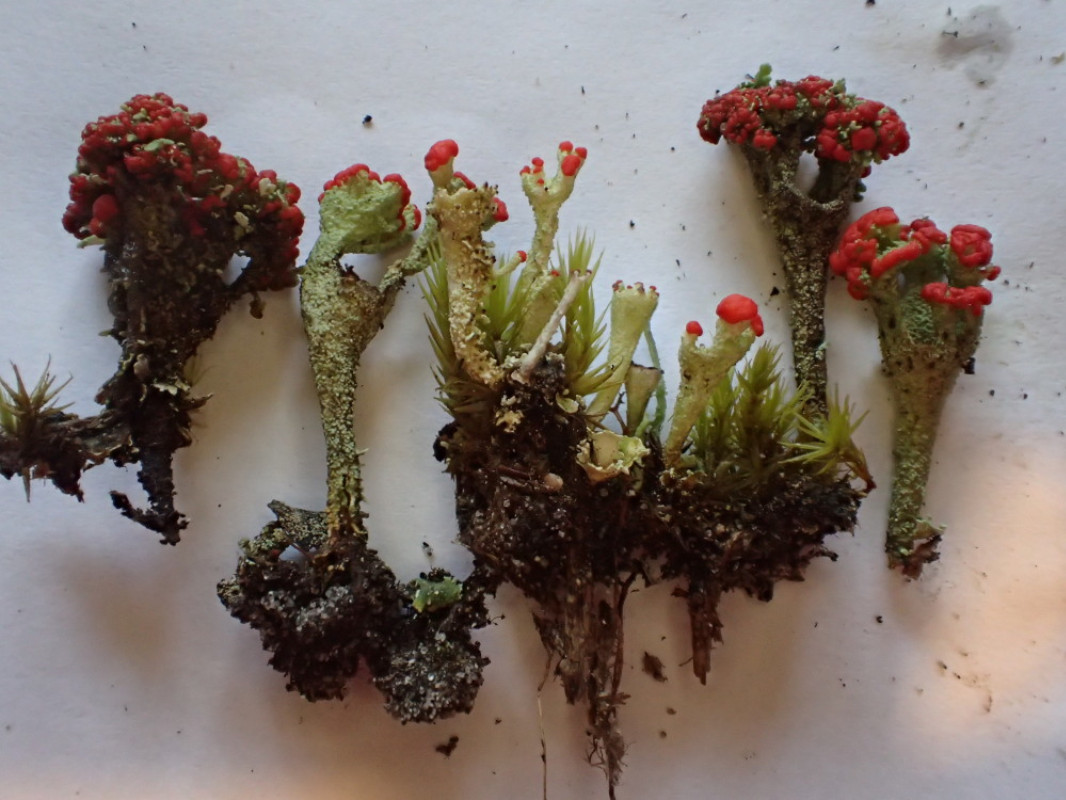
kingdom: Fungi
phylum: Ascomycota
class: Lecanoromycetes
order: Lecanorales
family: Cladoniaceae
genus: Cladonia
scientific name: Cladonia diversa
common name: rød bægerlav
